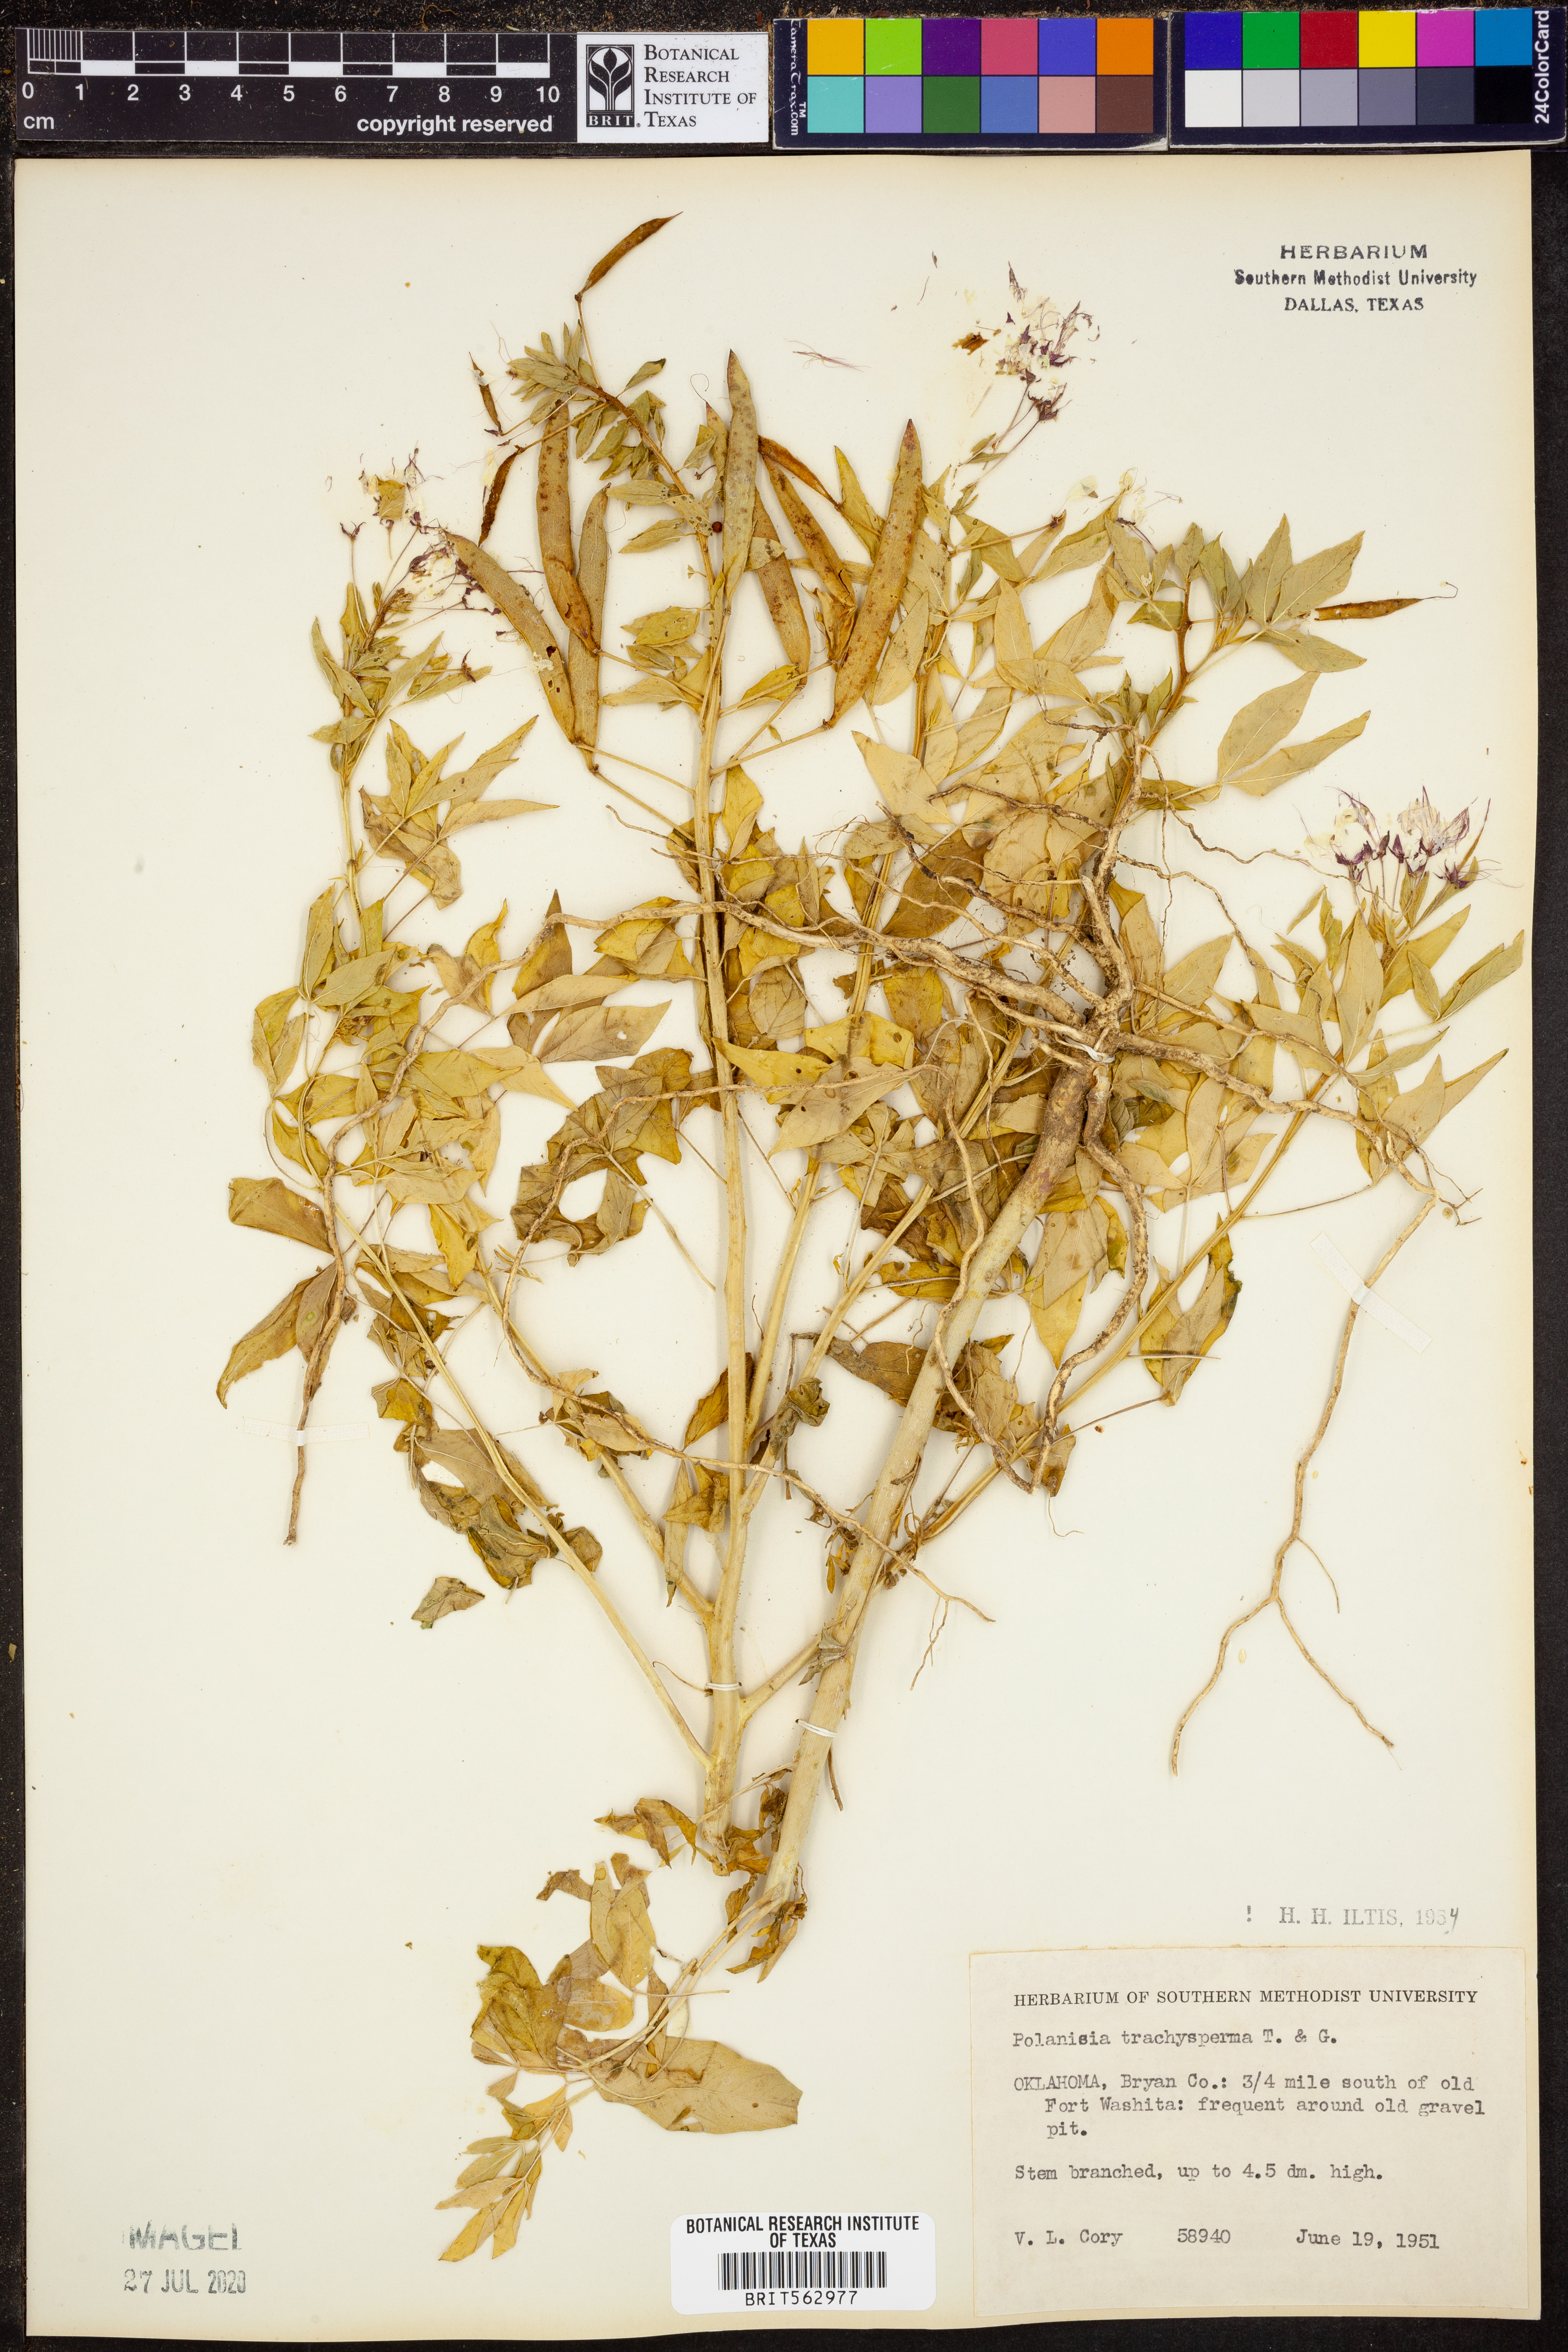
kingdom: Plantae
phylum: Tracheophyta
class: Magnoliopsida
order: Brassicales
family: Cleomaceae
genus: Polanisia
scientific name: Polanisia trachysperma
